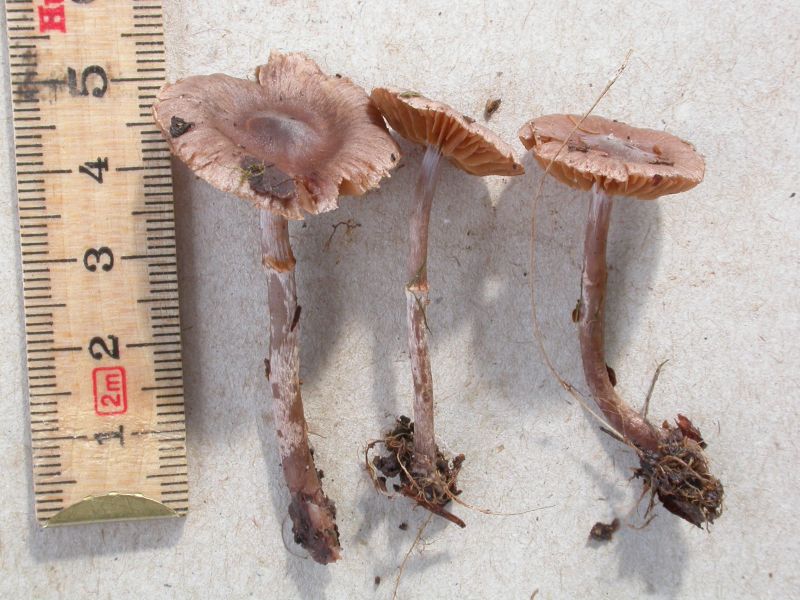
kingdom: Fungi
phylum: Basidiomycota
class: Agaricomycetes
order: Agaricales
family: Cortinariaceae
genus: Cortinarius
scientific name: Cortinarius decipiens
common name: mørkpuklet slørhat
